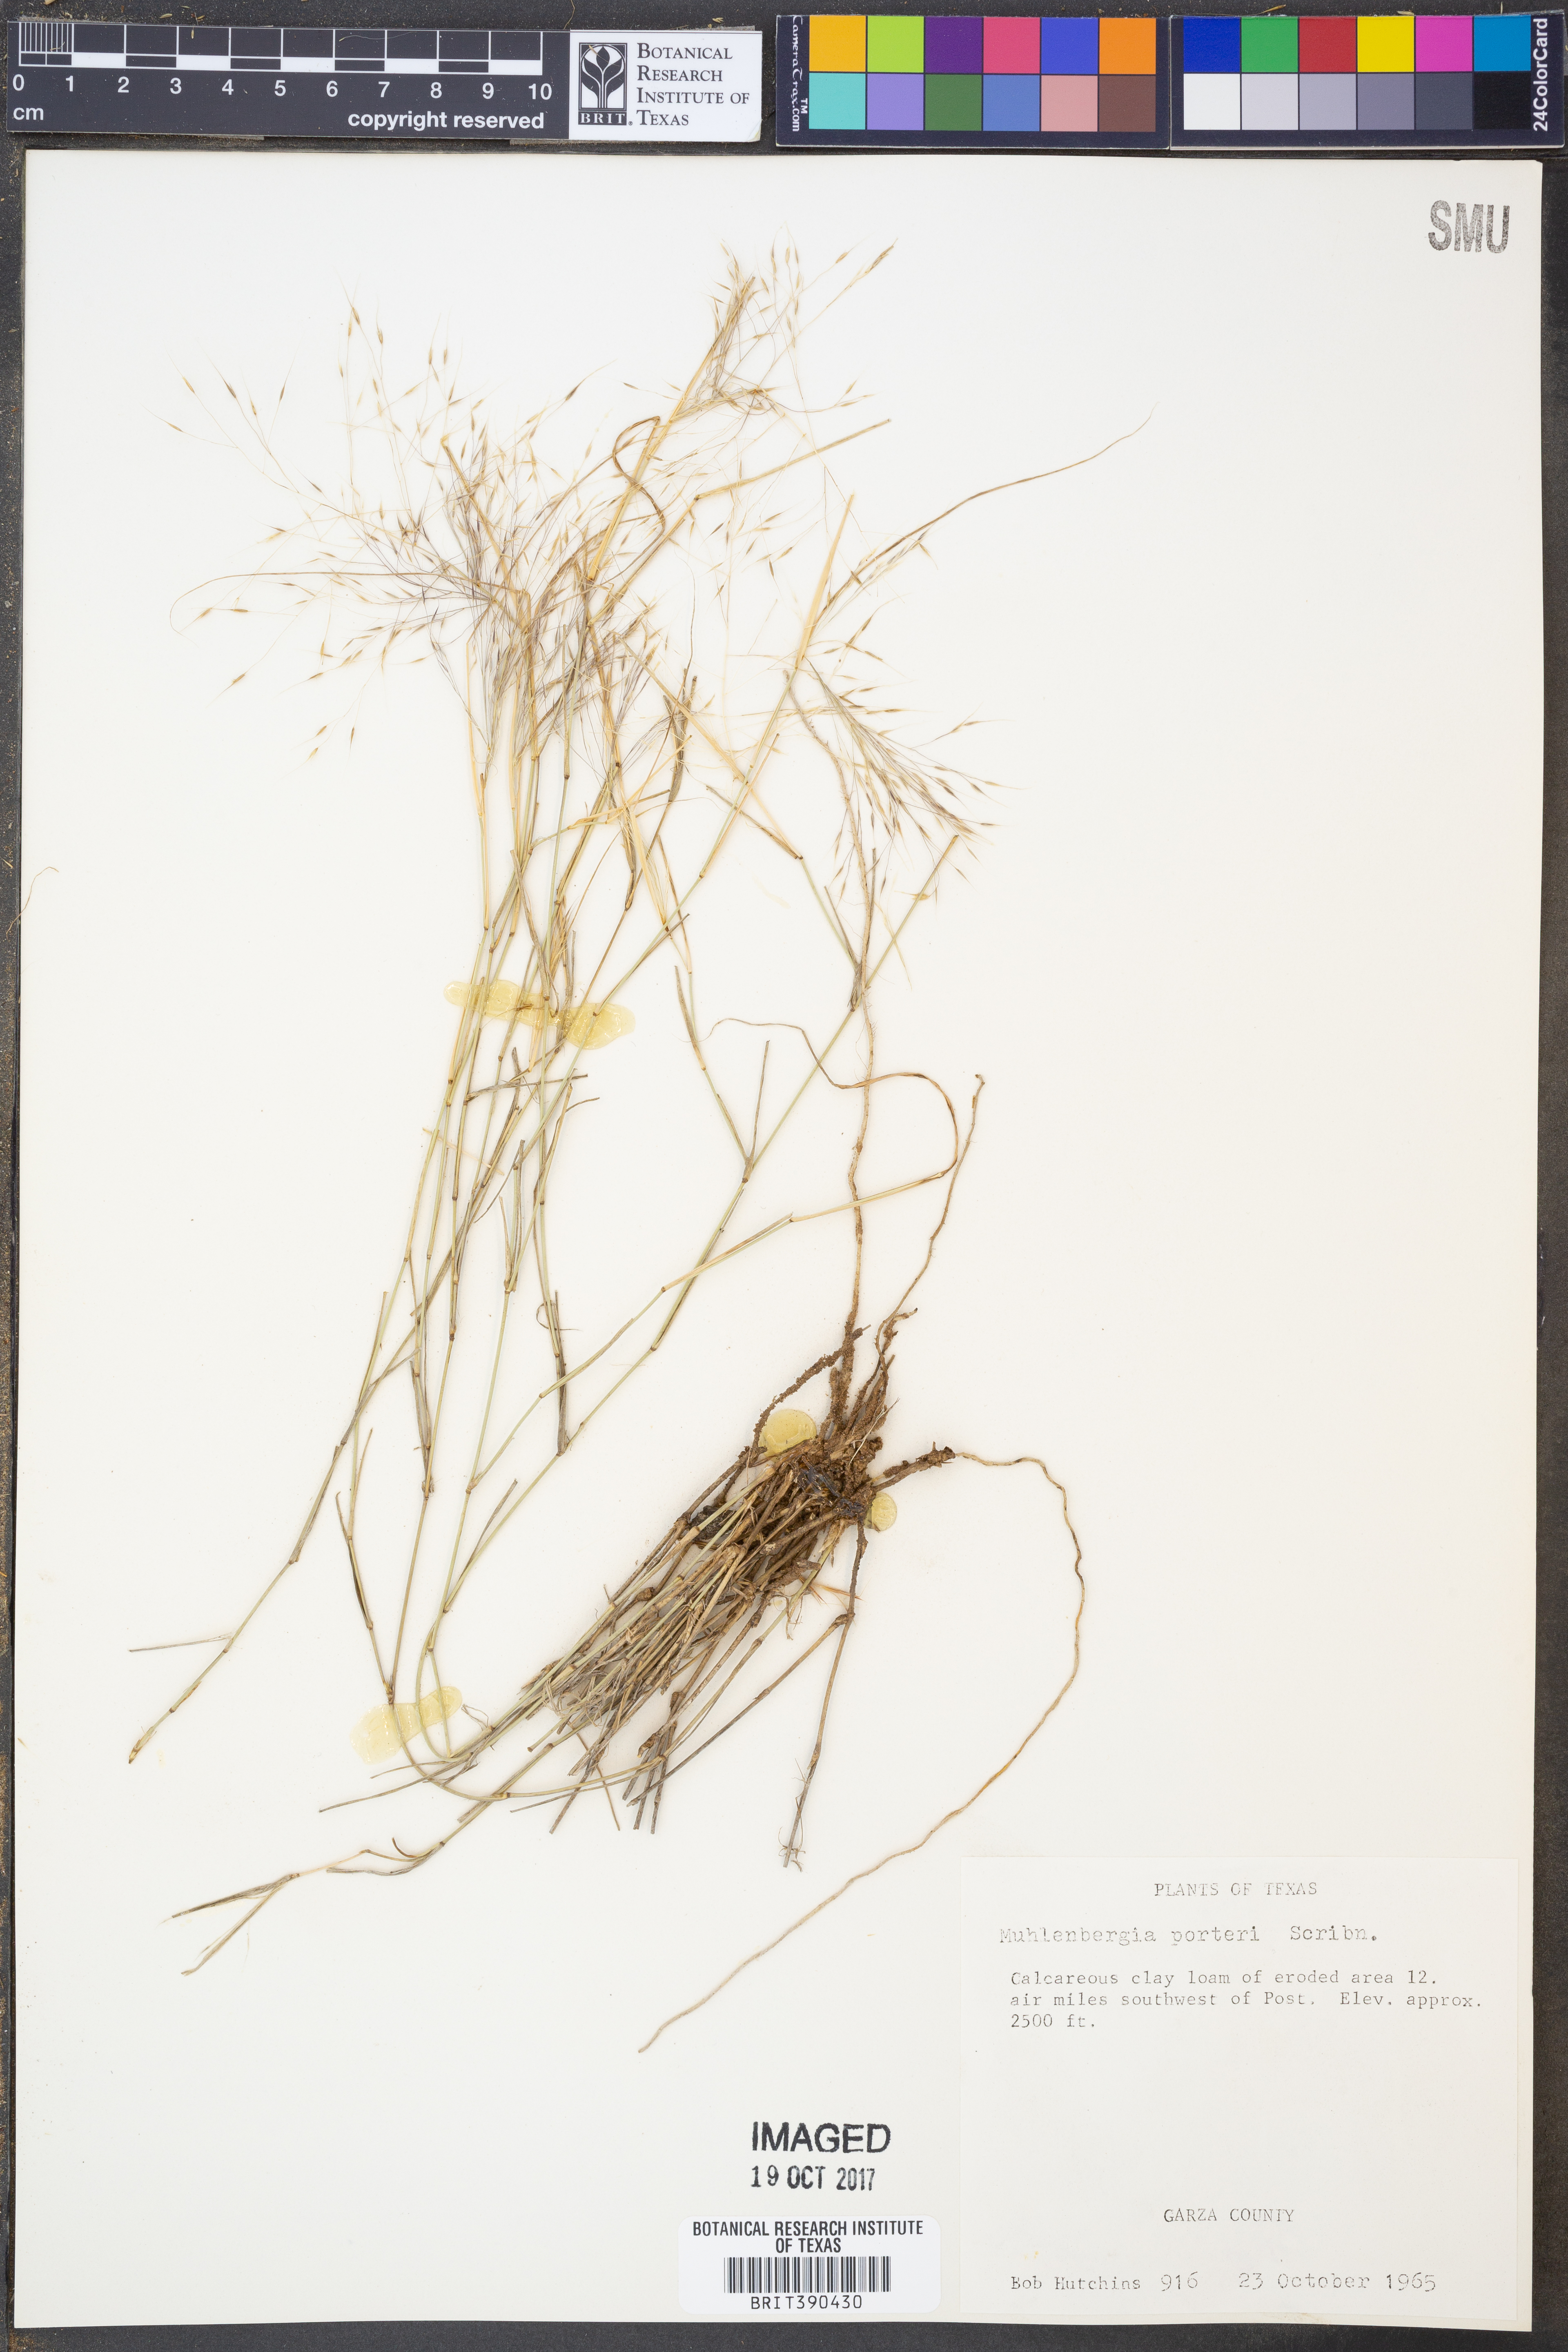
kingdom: Plantae
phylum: Tracheophyta
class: Liliopsida
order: Poales
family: Poaceae
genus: Muhlenbergia
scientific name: Muhlenbergia porteri
